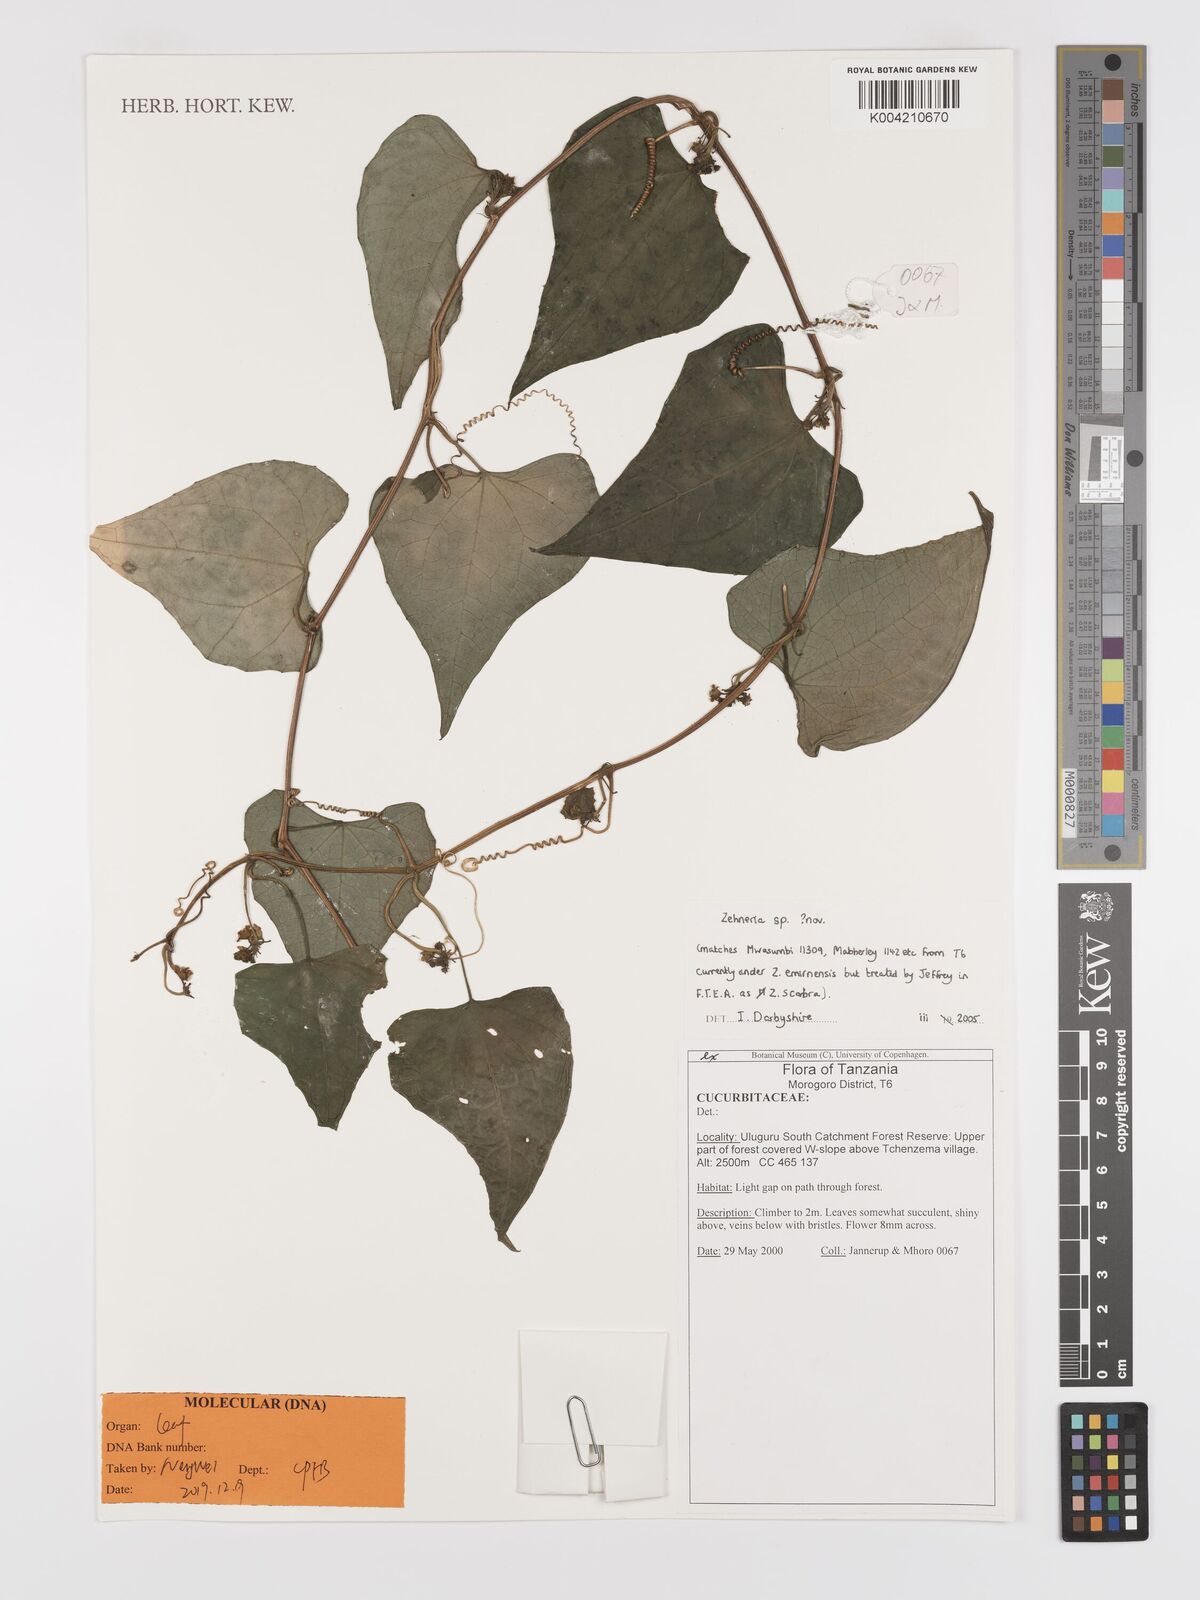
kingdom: Plantae
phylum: Tracheophyta
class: Magnoliopsida
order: Cucurbitales
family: Cucurbitaceae
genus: Zehneria
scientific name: Zehneria scabra
